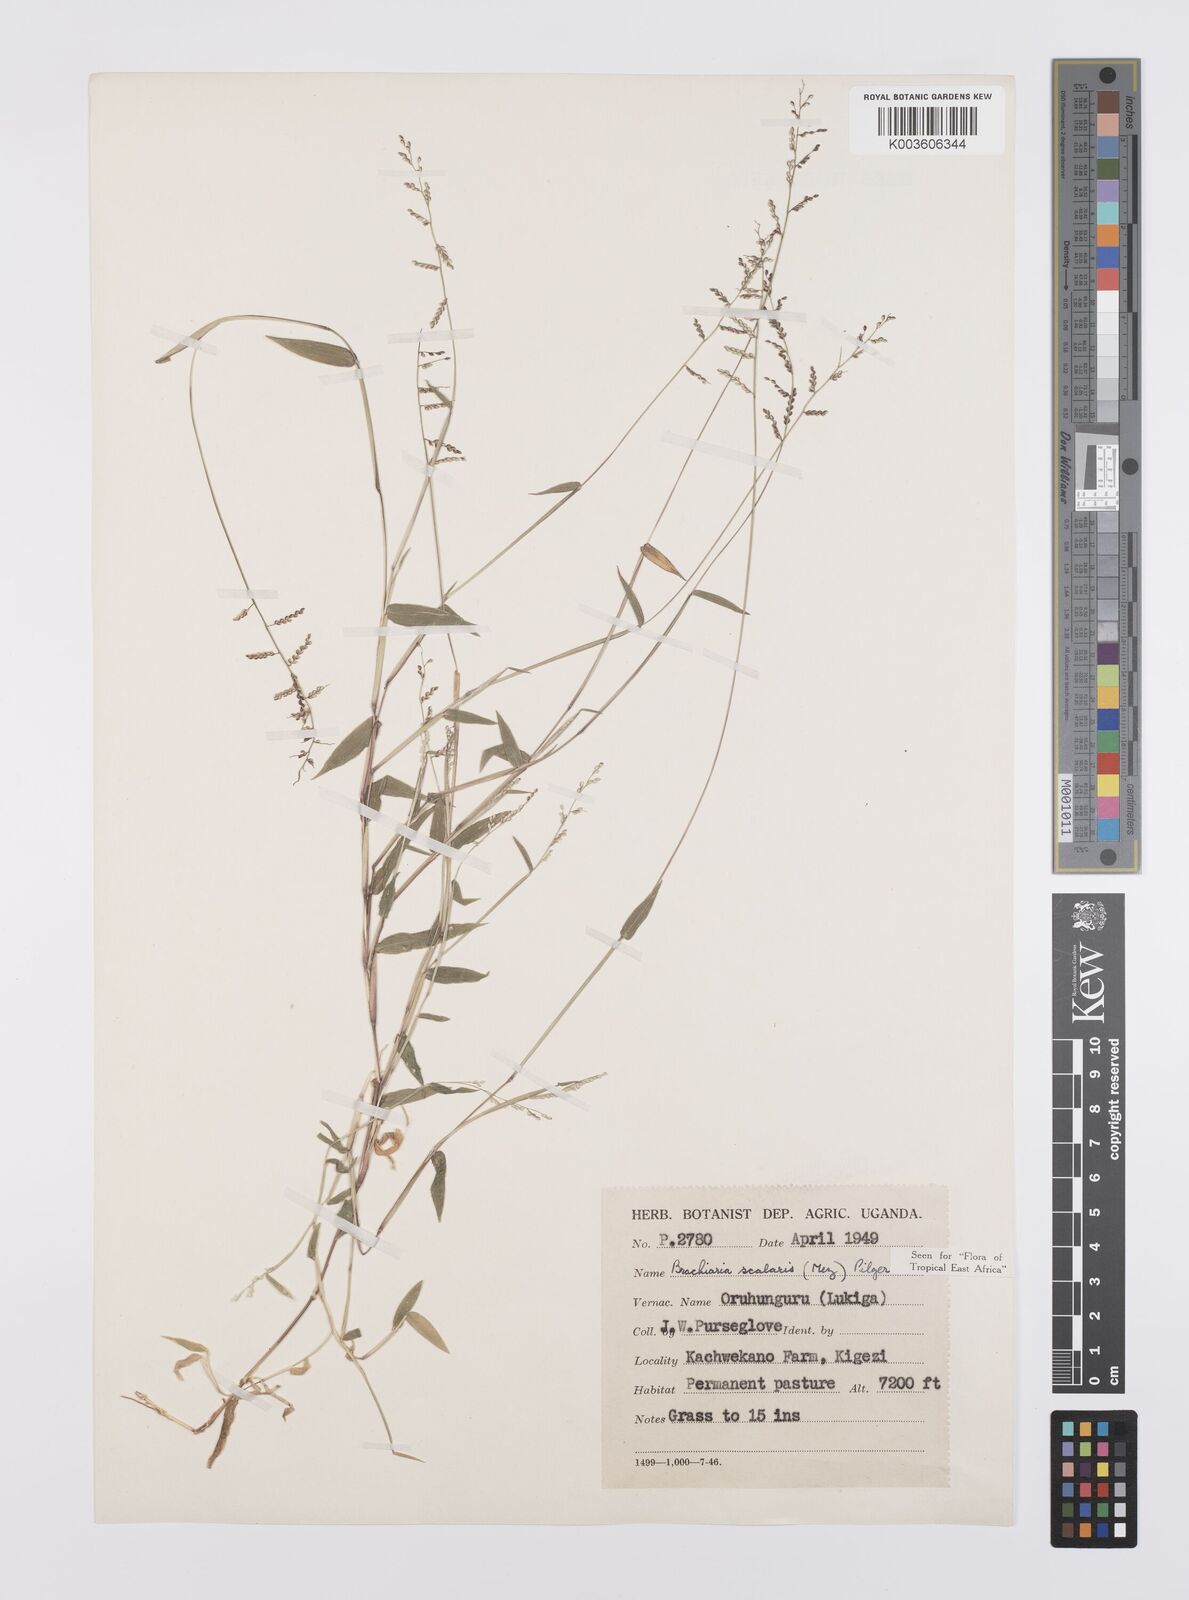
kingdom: Plantae
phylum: Tracheophyta
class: Liliopsida
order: Poales
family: Poaceae
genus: Urochloa
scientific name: Urochloa comata
